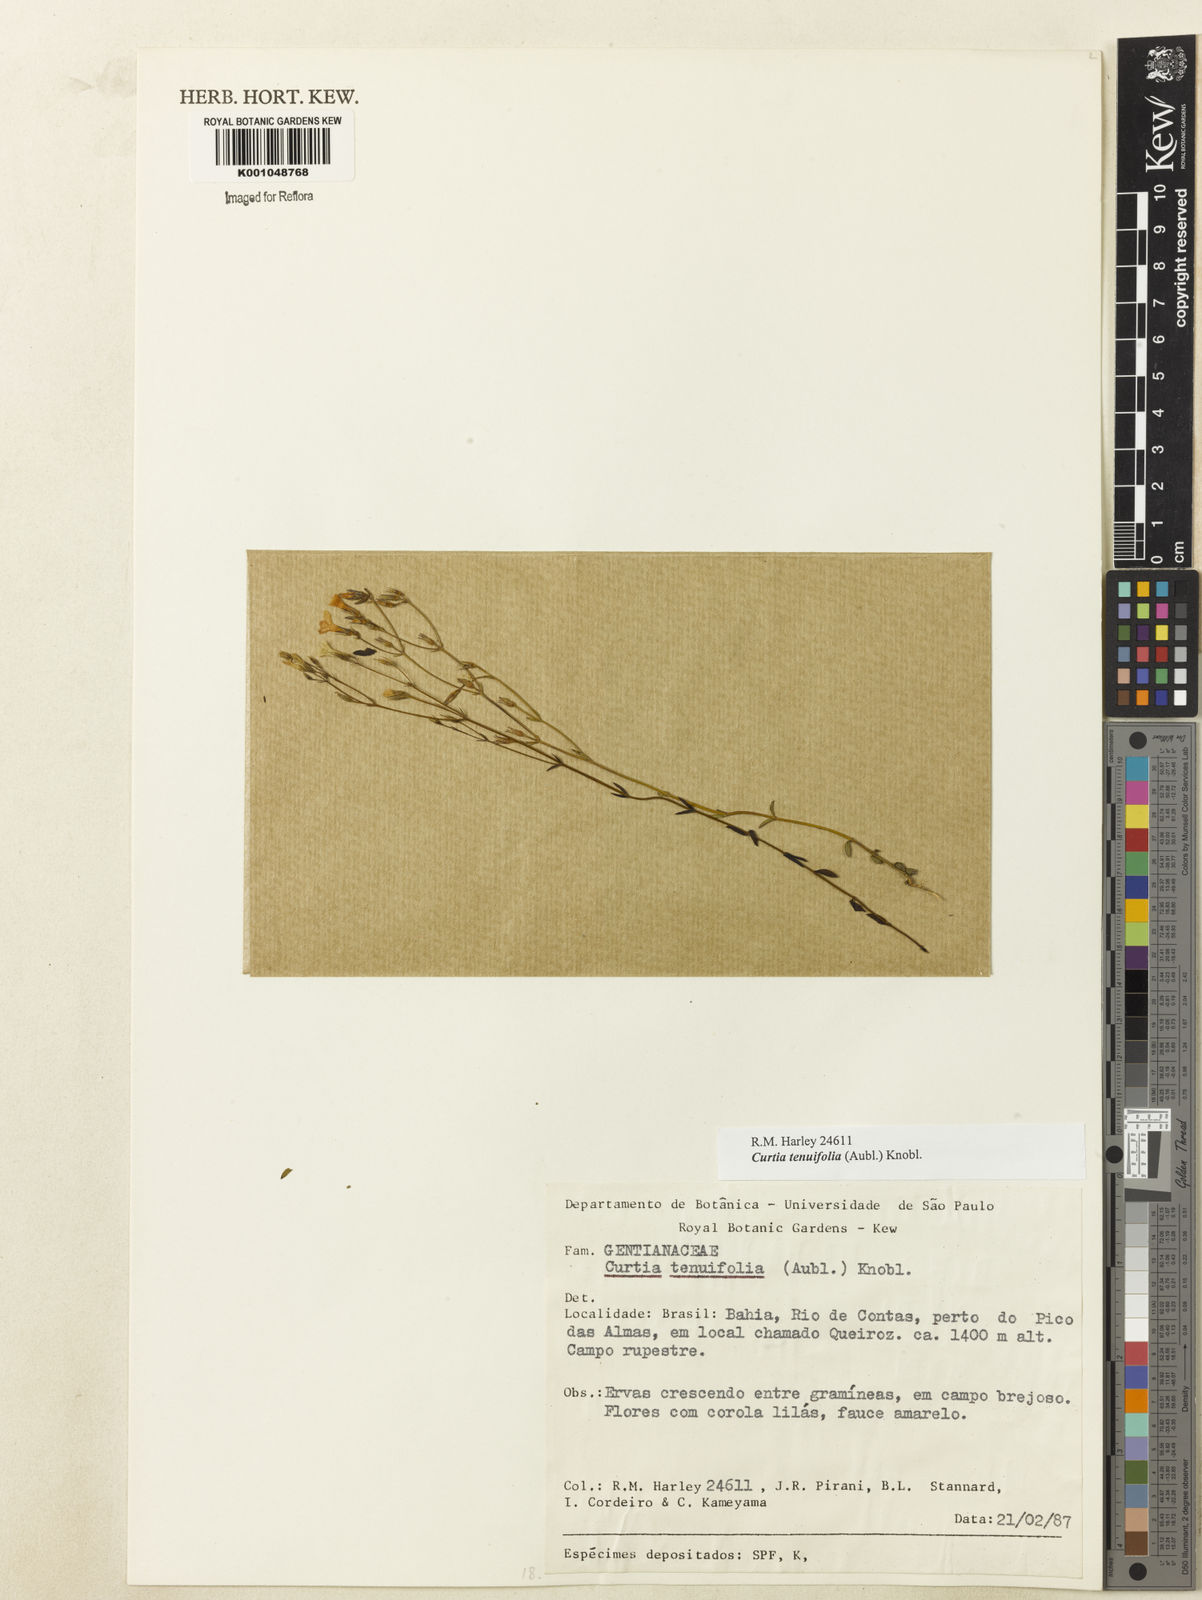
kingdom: Plantae
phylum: Tracheophyta
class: Magnoliopsida
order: Gentianales
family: Gentianaceae
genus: Curtia
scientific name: Curtia tenuifolia
